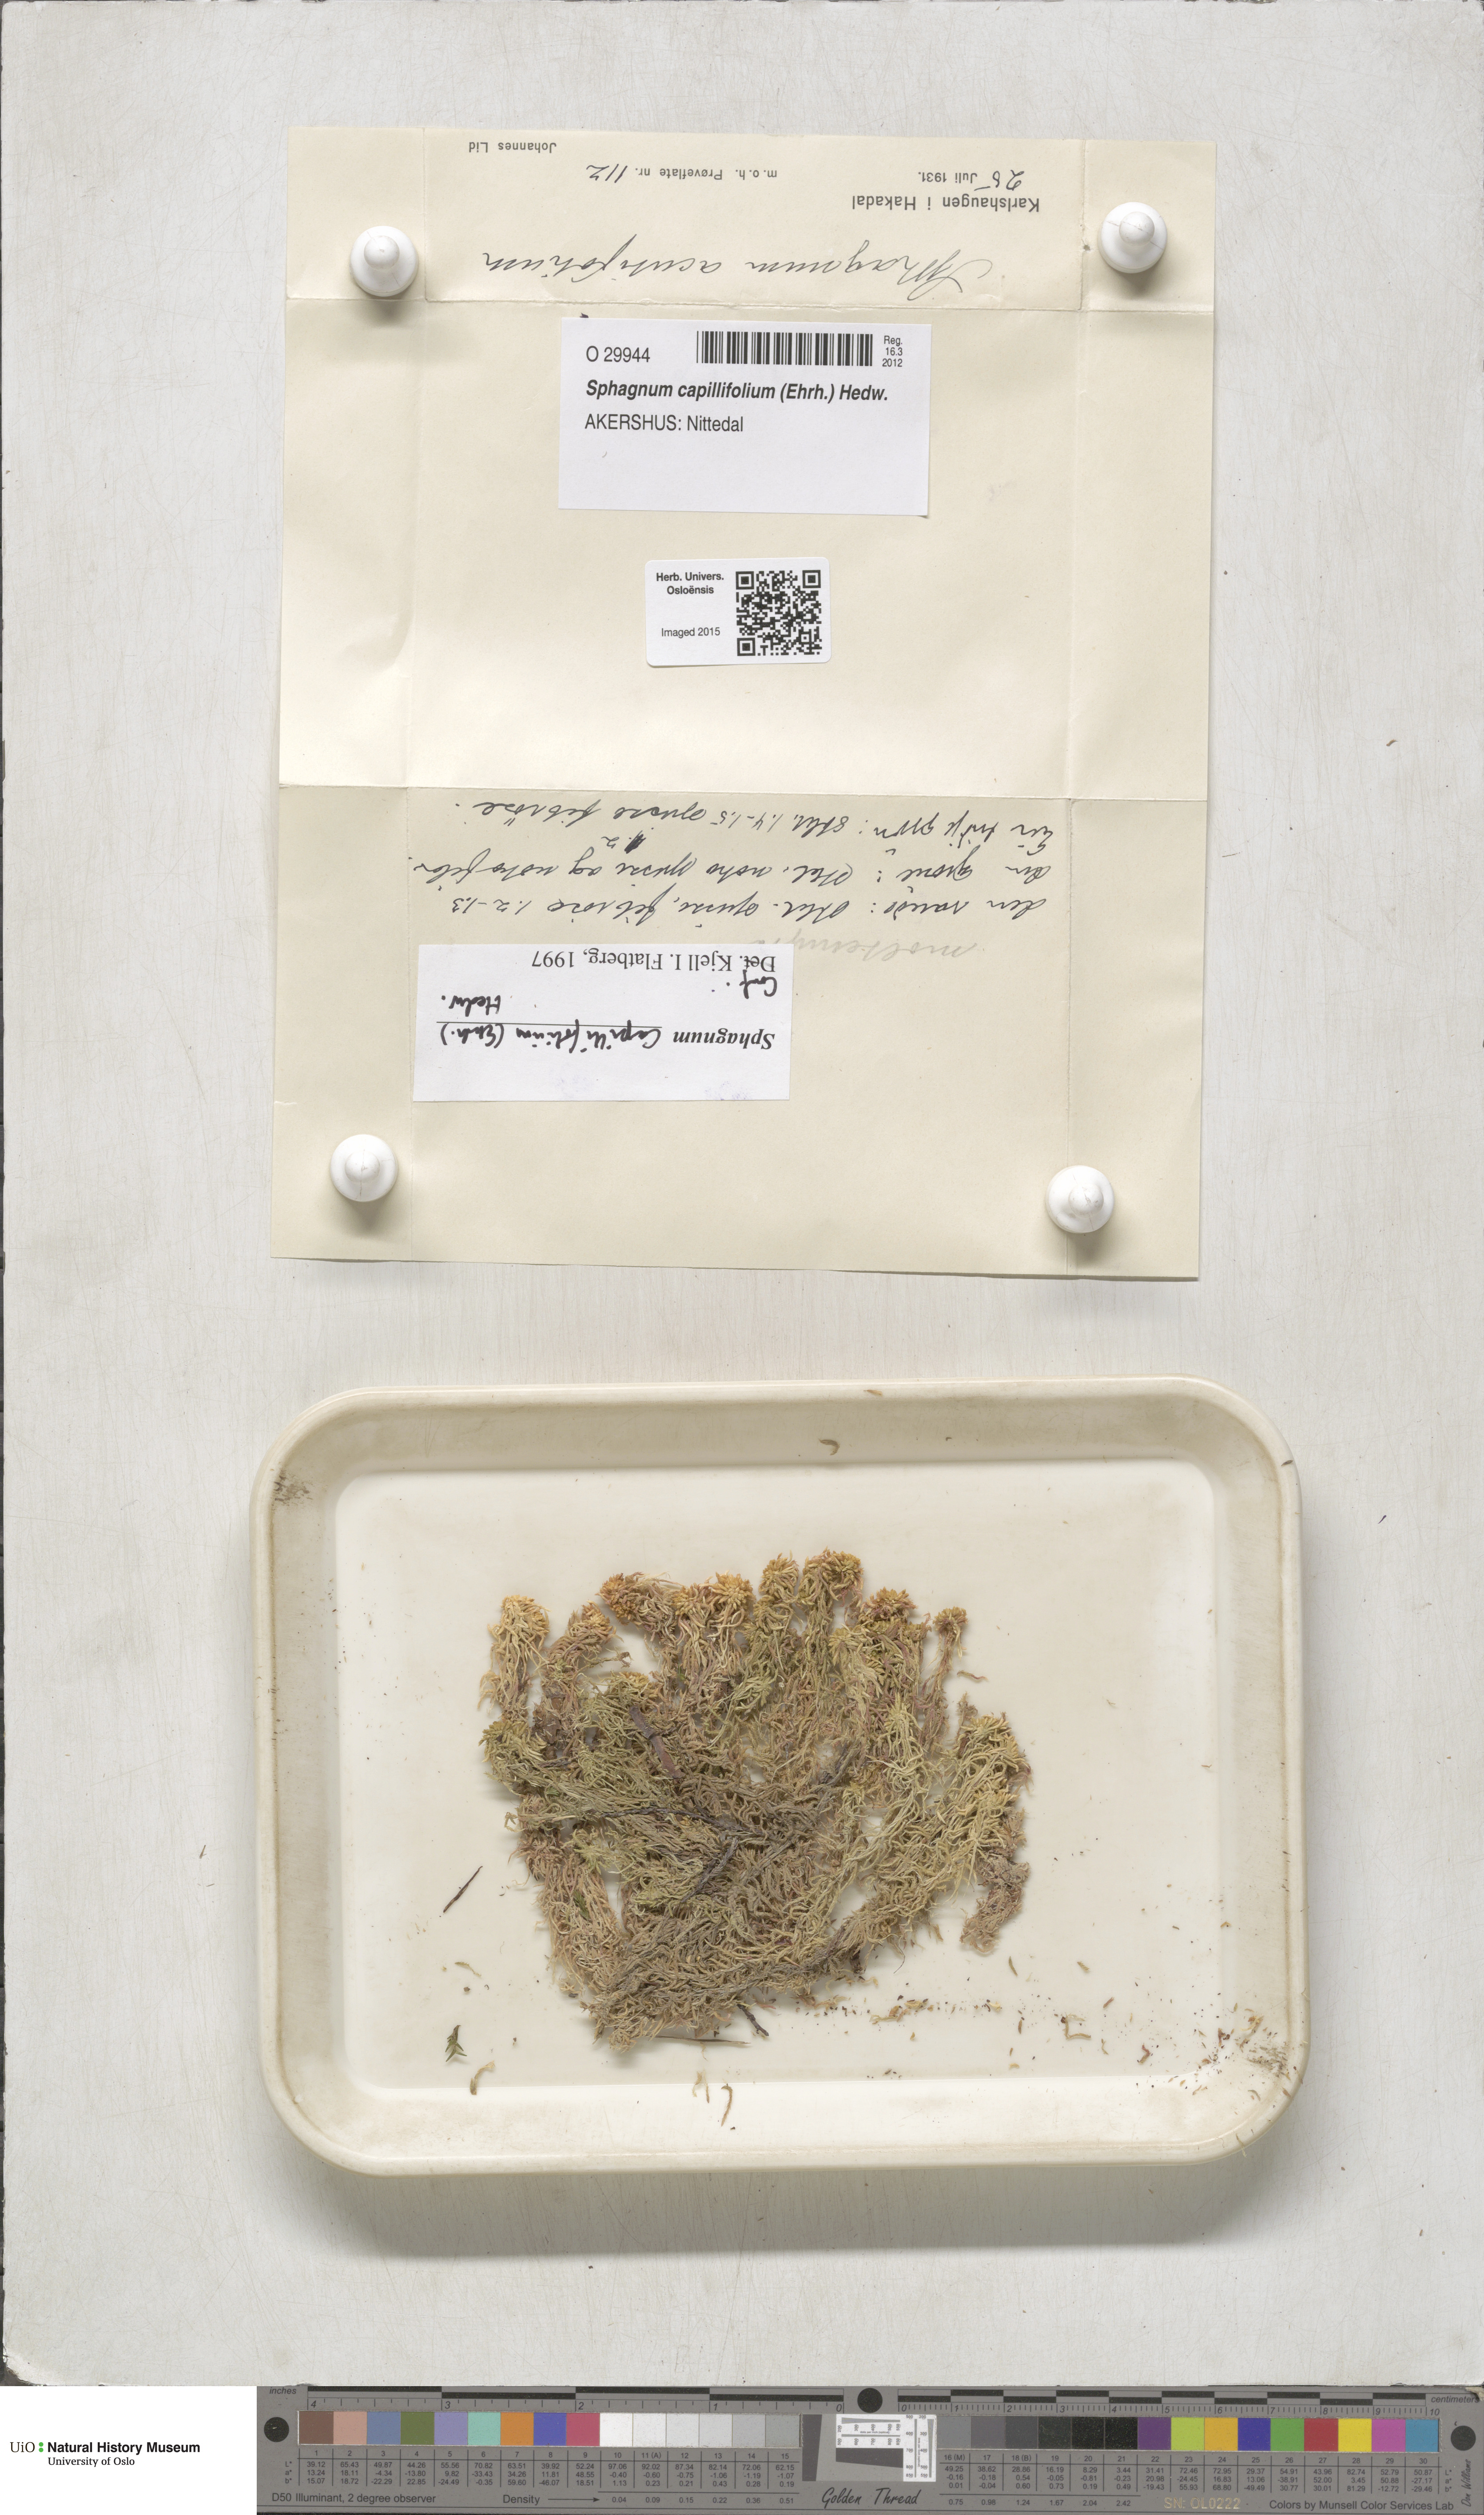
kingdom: Plantae
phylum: Bryophyta
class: Sphagnopsida
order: Sphagnales
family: Sphagnaceae
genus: Sphagnum
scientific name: Sphagnum capillifolium
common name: Small red peat moss
